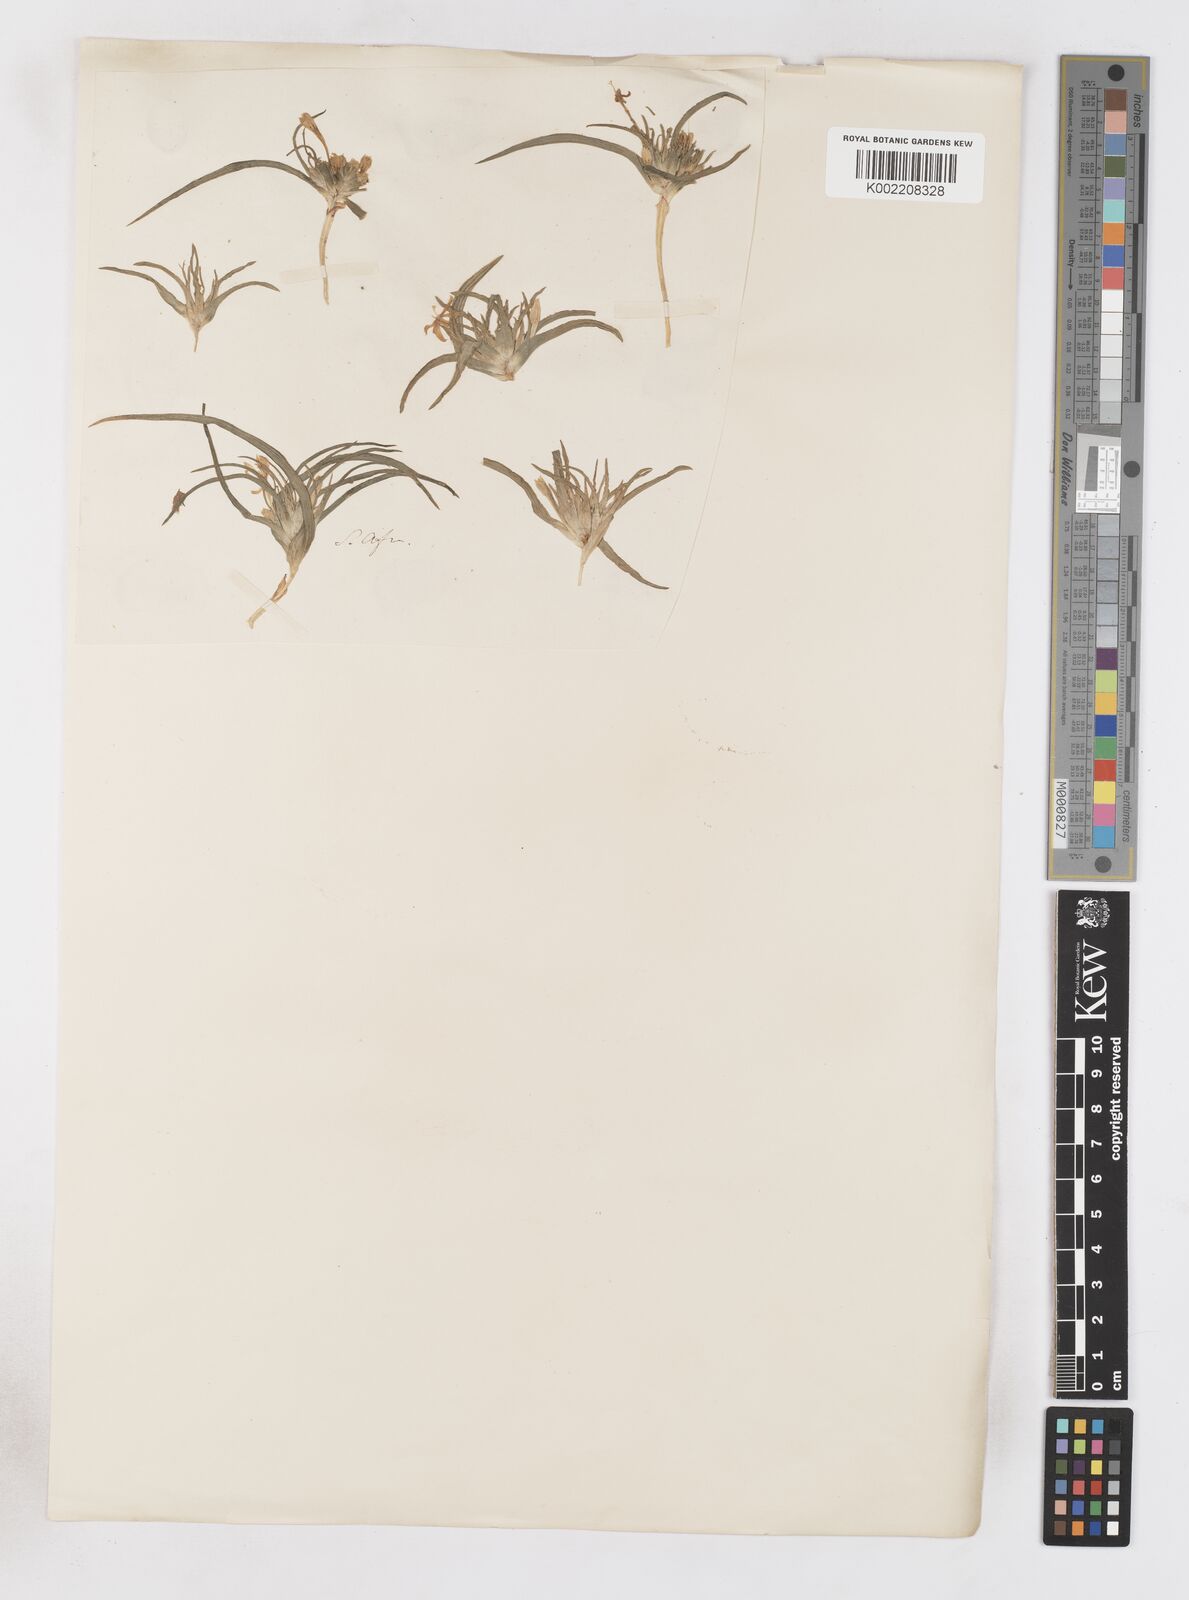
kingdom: Plantae
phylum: Tracheophyta
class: Liliopsida
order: Asparagales
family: Iridaceae
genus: Lapeirousia
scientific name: Lapeirousia plicata
